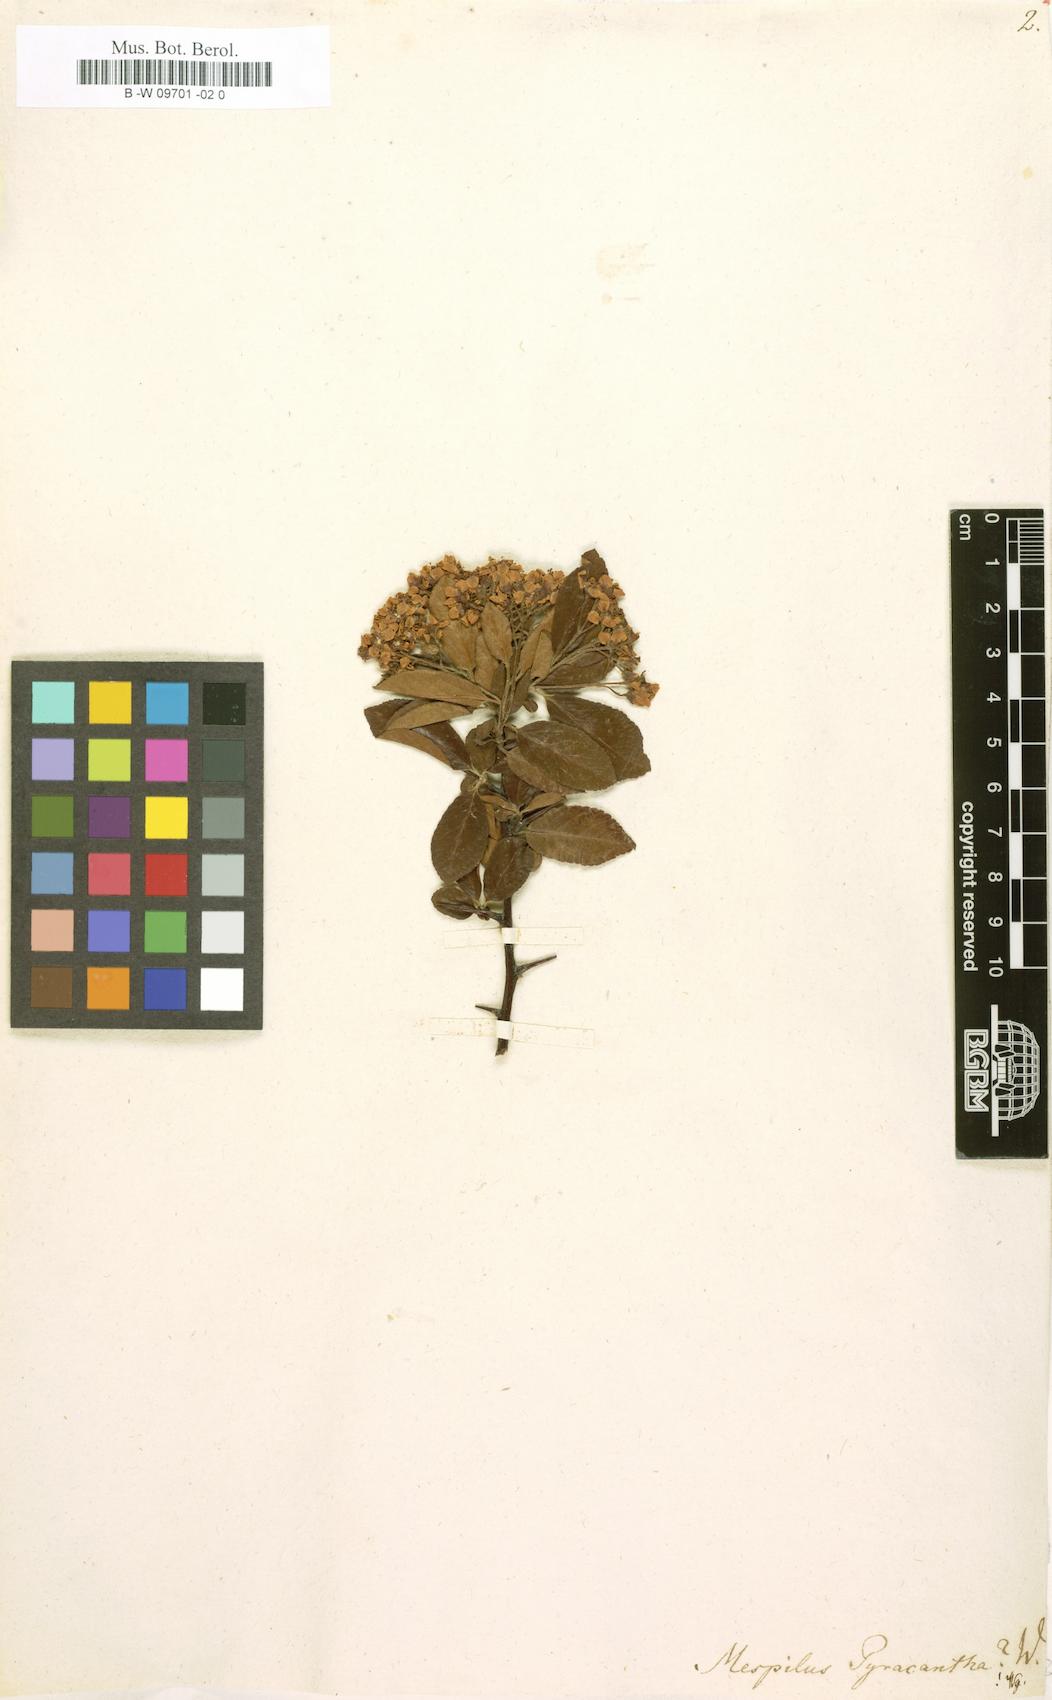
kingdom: Plantae
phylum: Tracheophyta
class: Magnoliopsida
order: Rosales
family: Rosaceae
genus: Pyracantha
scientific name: Pyracantha
